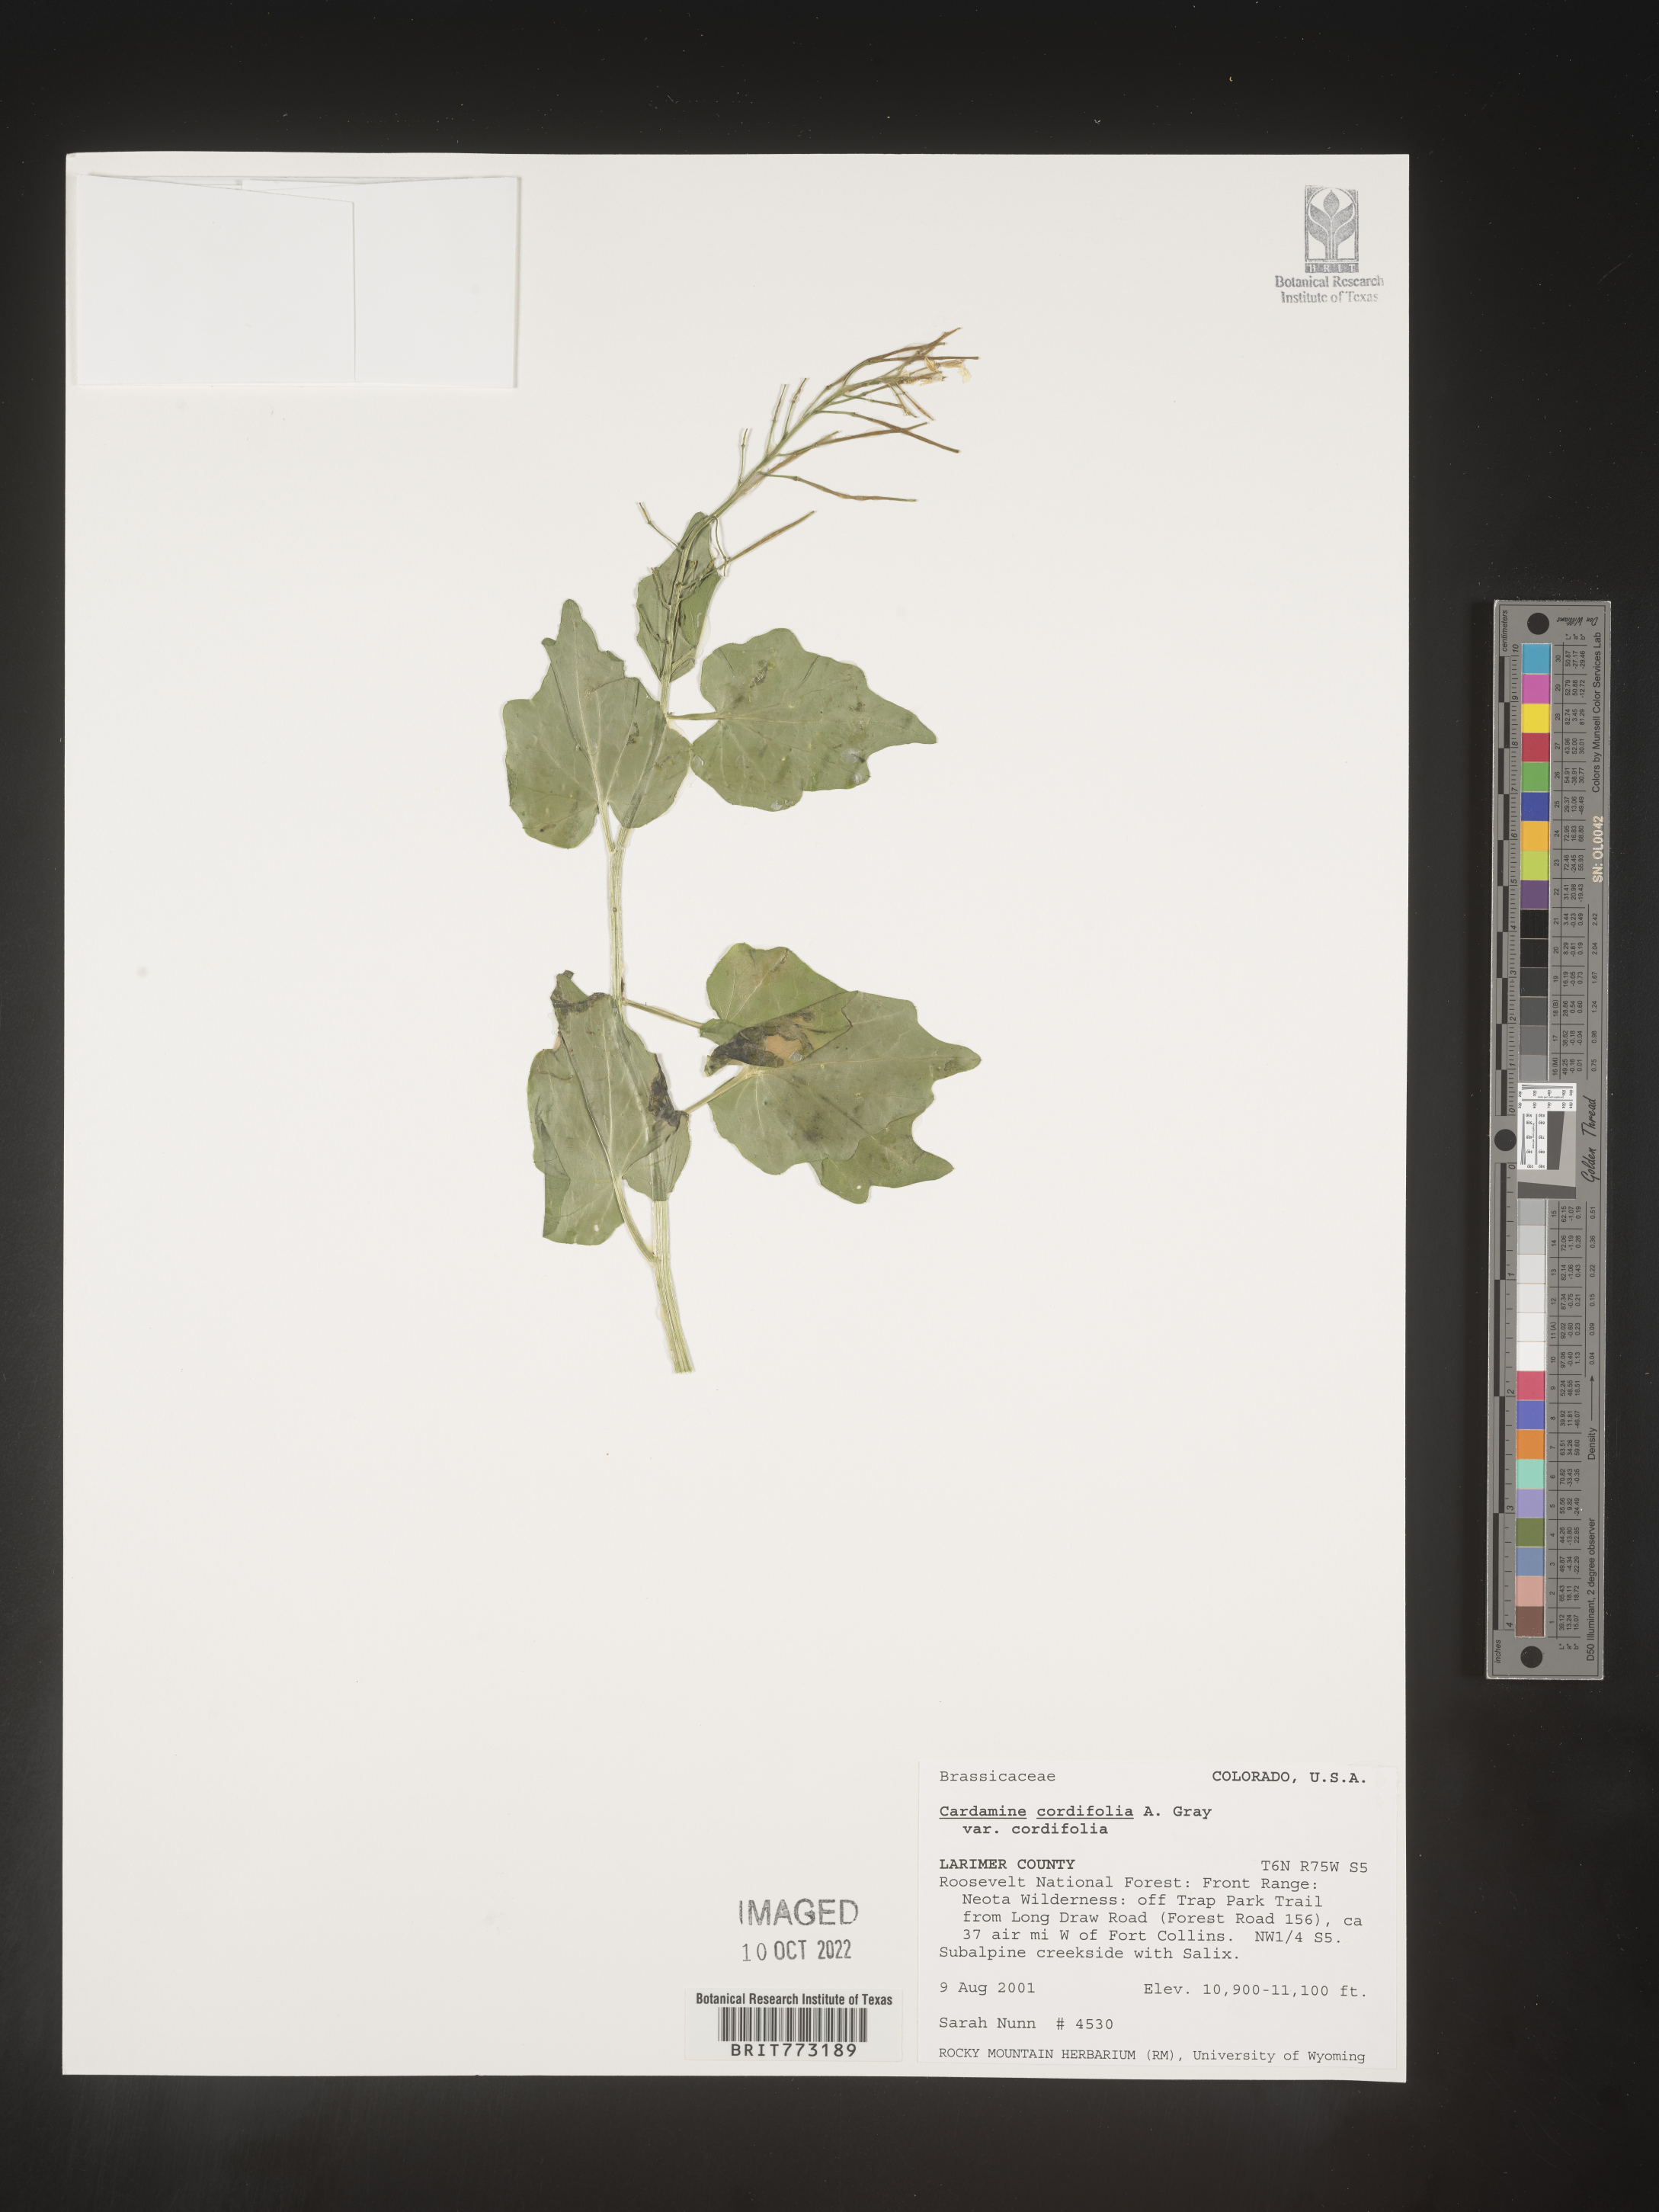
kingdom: Plantae
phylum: Tracheophyta
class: Magnoliopsida
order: Brassicales
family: Brassicaceae
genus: Cardamine
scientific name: Cardamine
